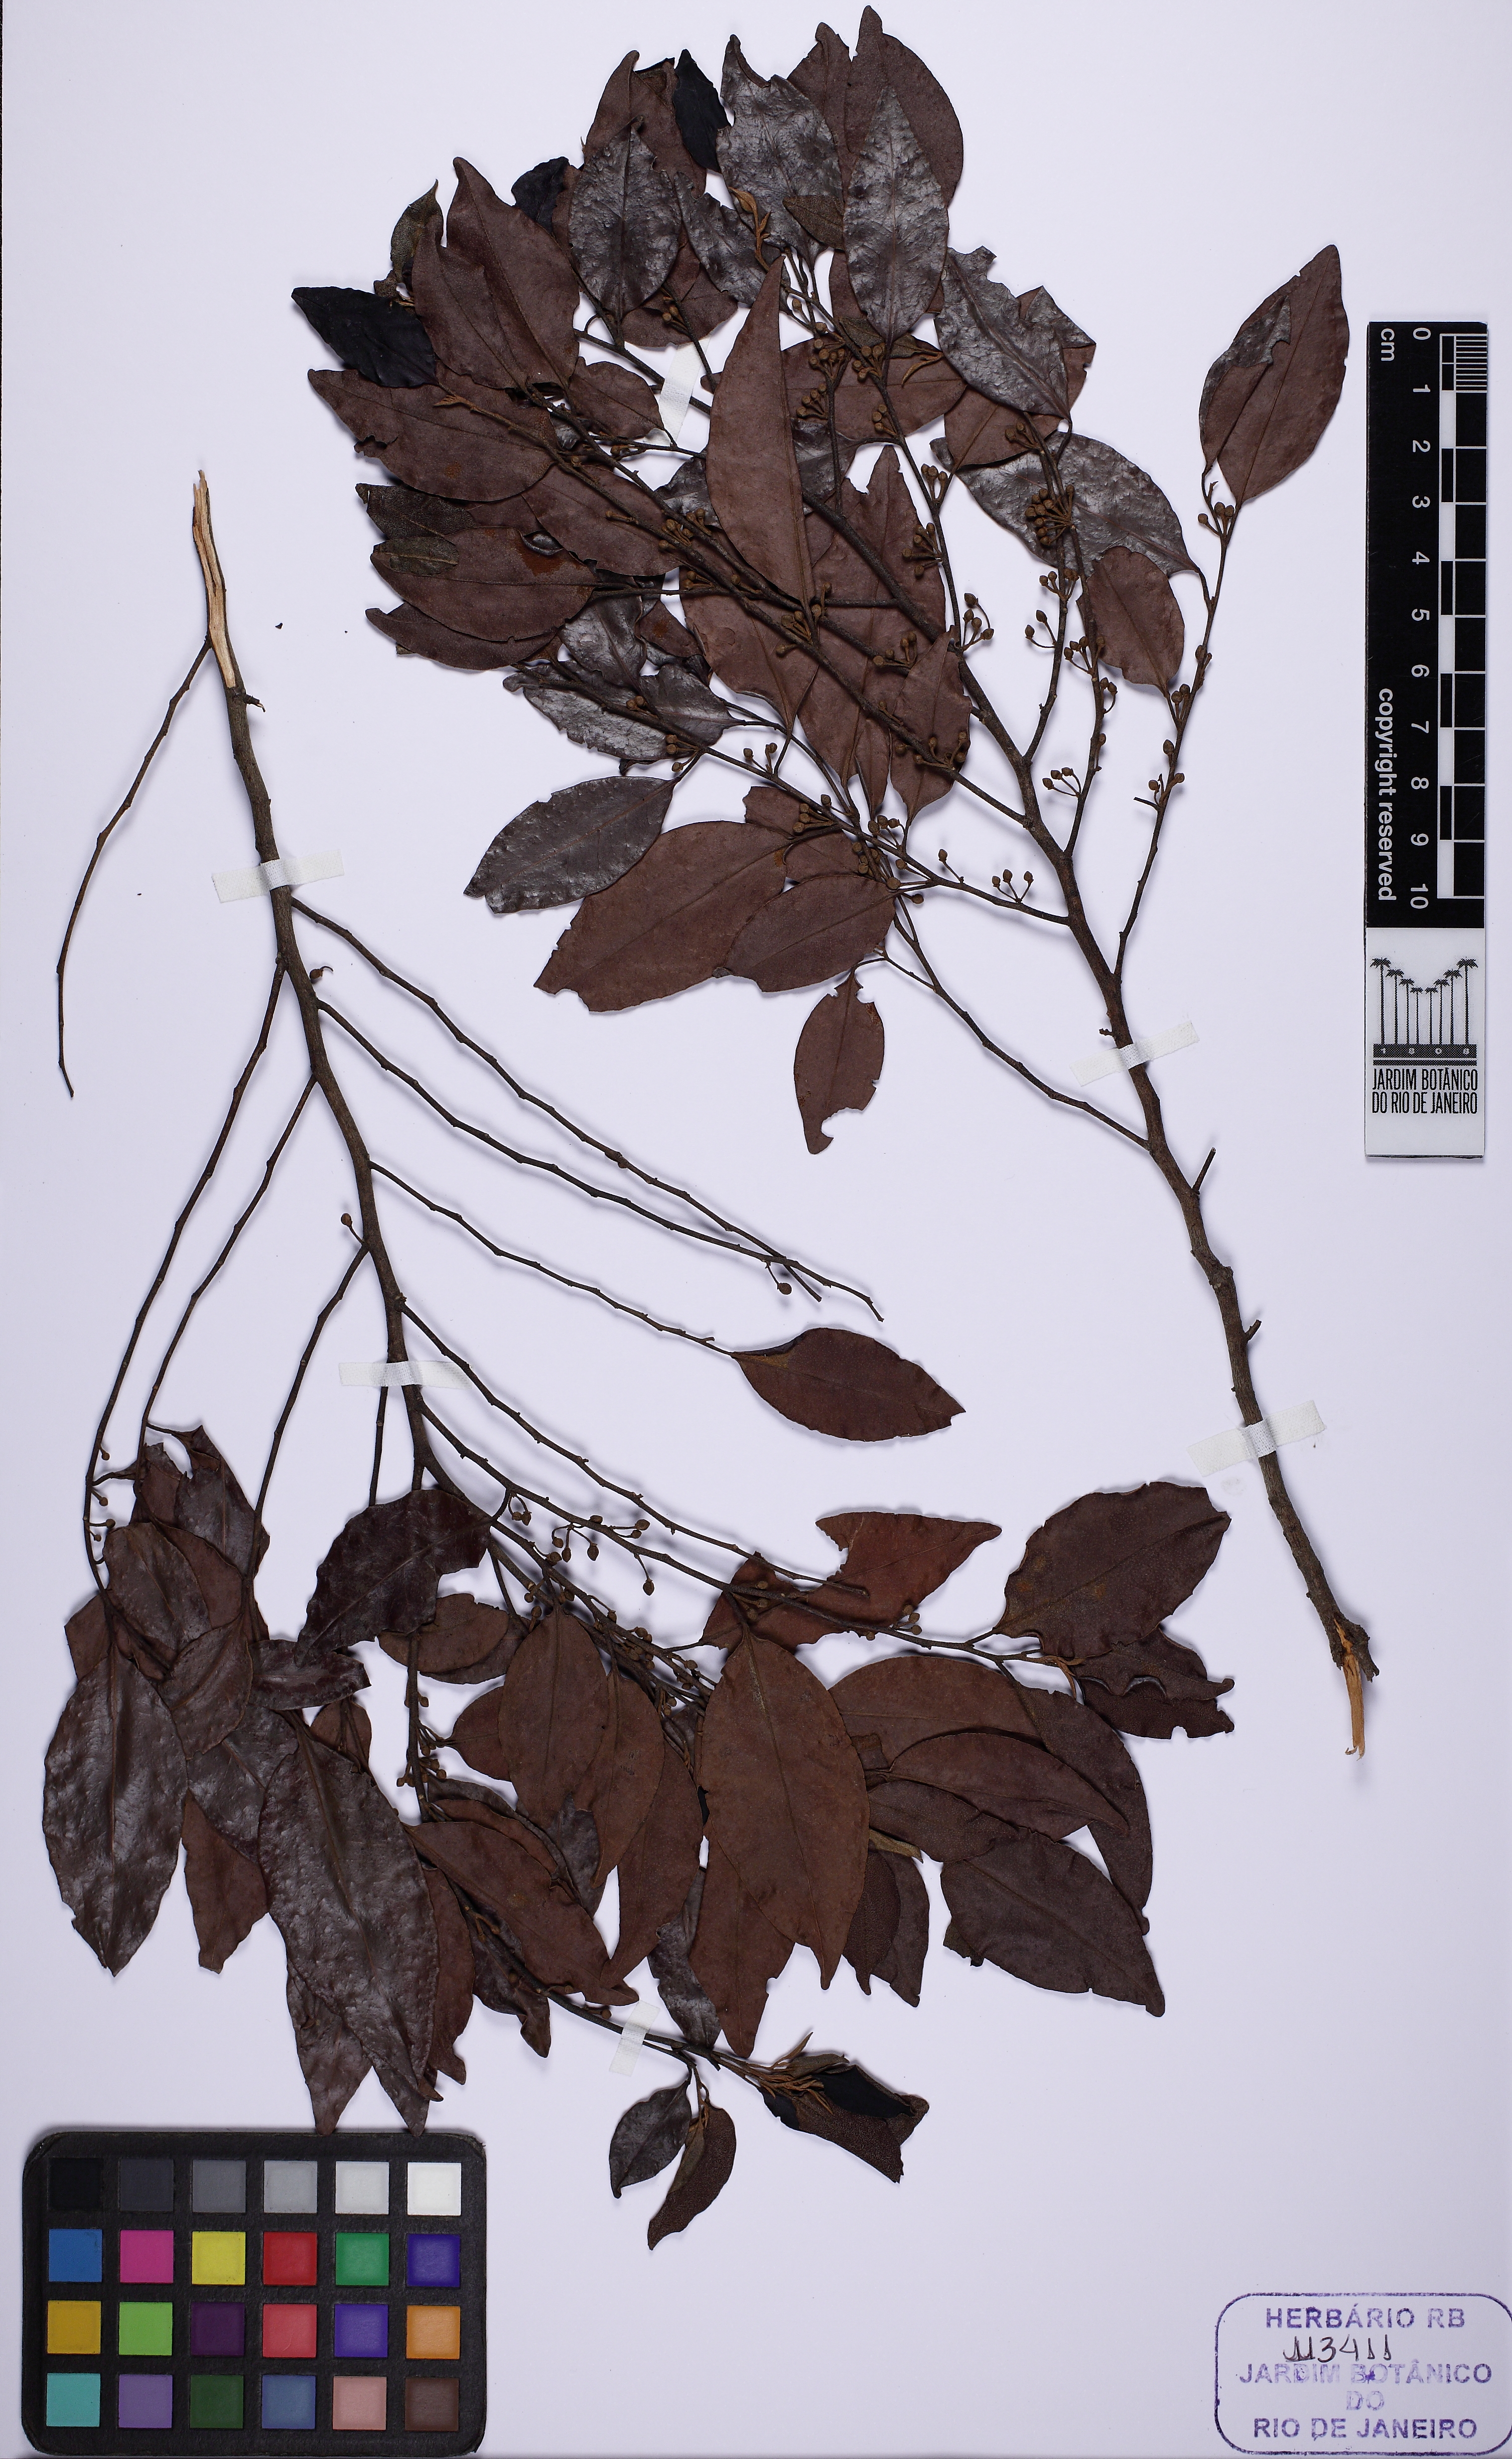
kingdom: Plantae
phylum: Tracheophyta
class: Magnoliopsida
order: Malpighiales
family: Peraceae
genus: Pera
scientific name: Pera glabrata
